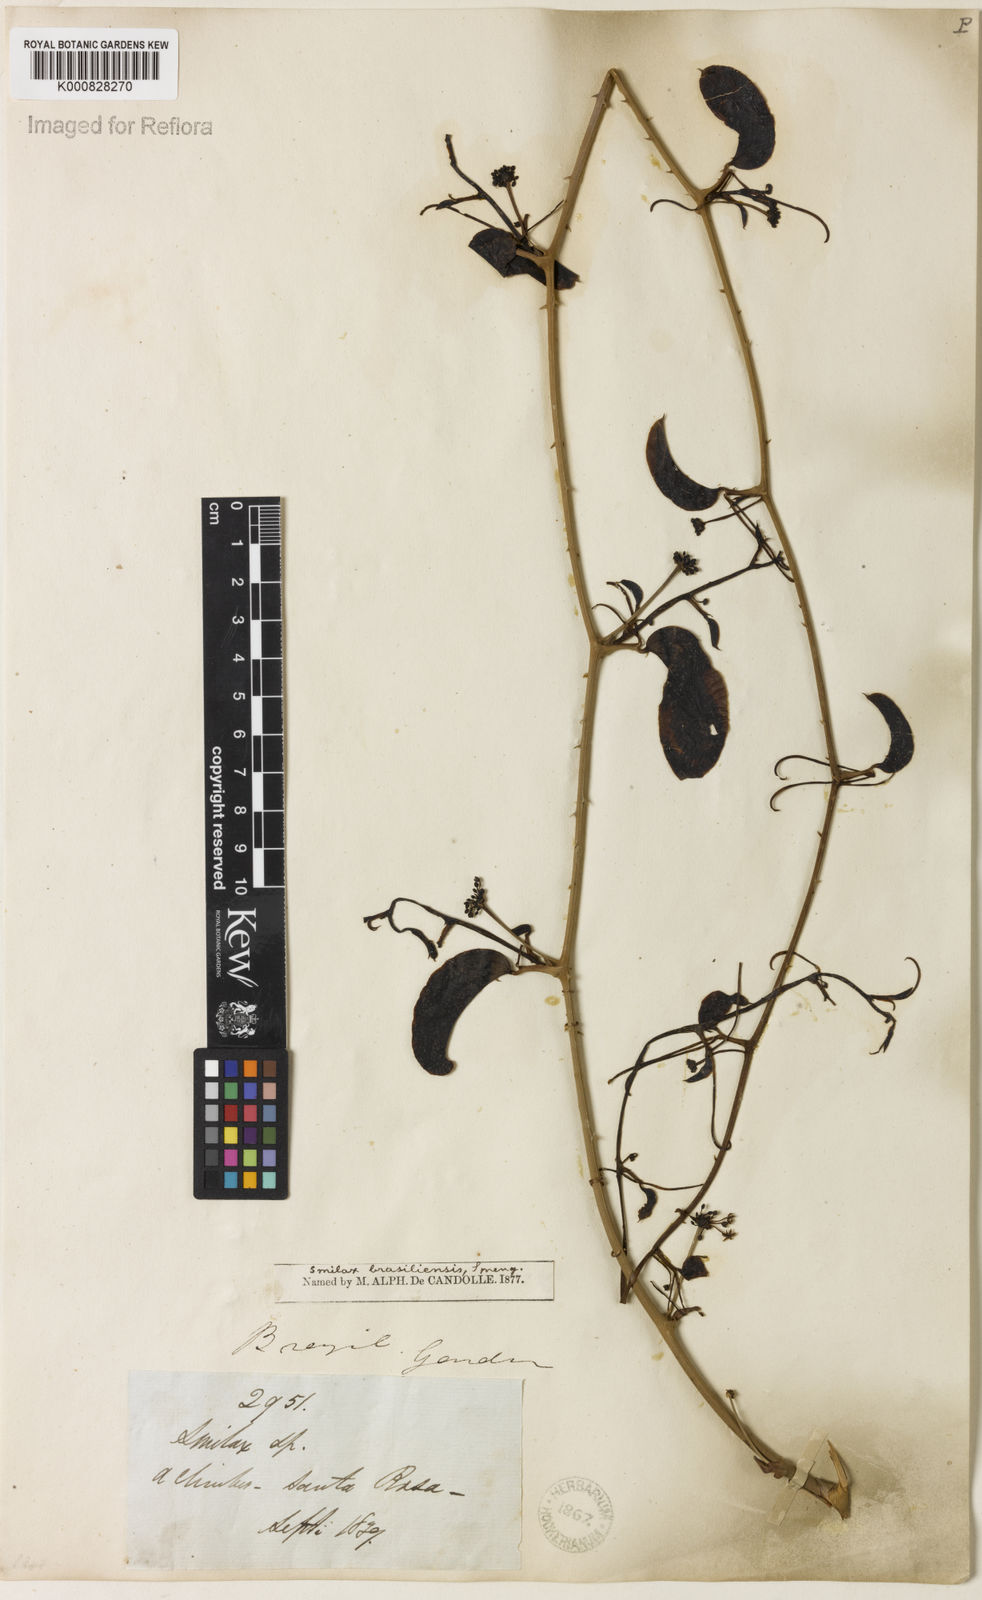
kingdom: Plantae
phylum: Tracheophyta
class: Liliopsida
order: Liliales
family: Smilacaceae
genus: Smilax
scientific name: Smilax brasiliensis
